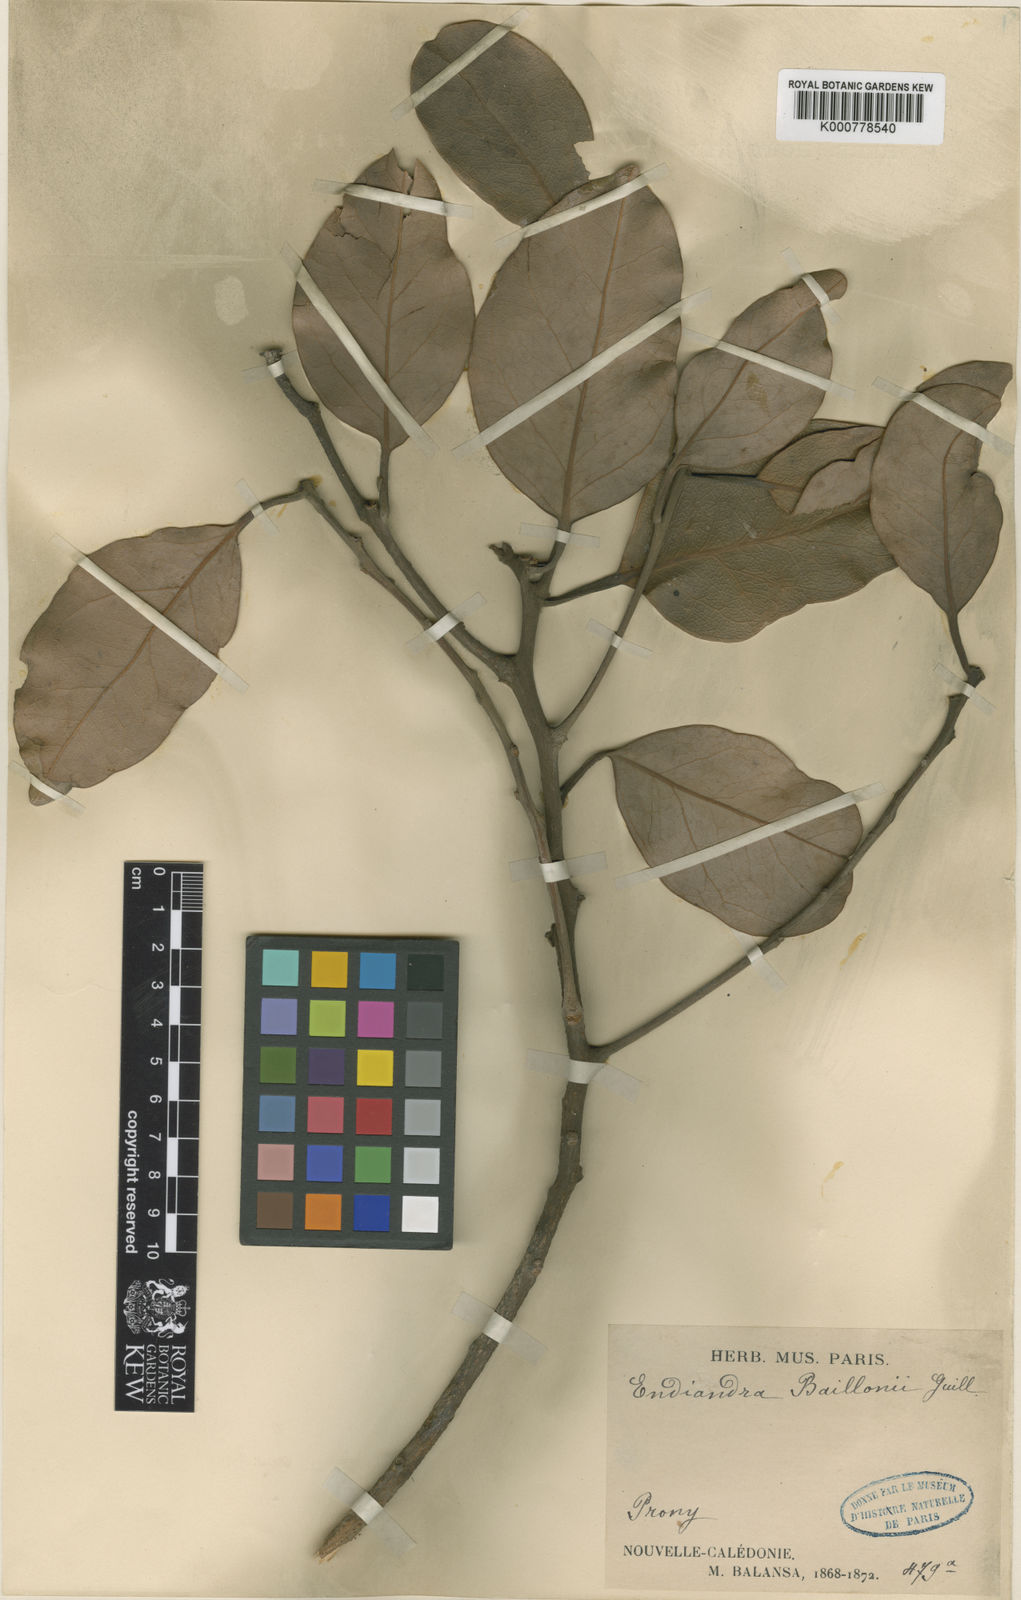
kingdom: Plantae
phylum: Tracheophyta
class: Magnoliopsida
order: Laurales
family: Lauraceae
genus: Endiandra
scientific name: Endiandra baillonii
